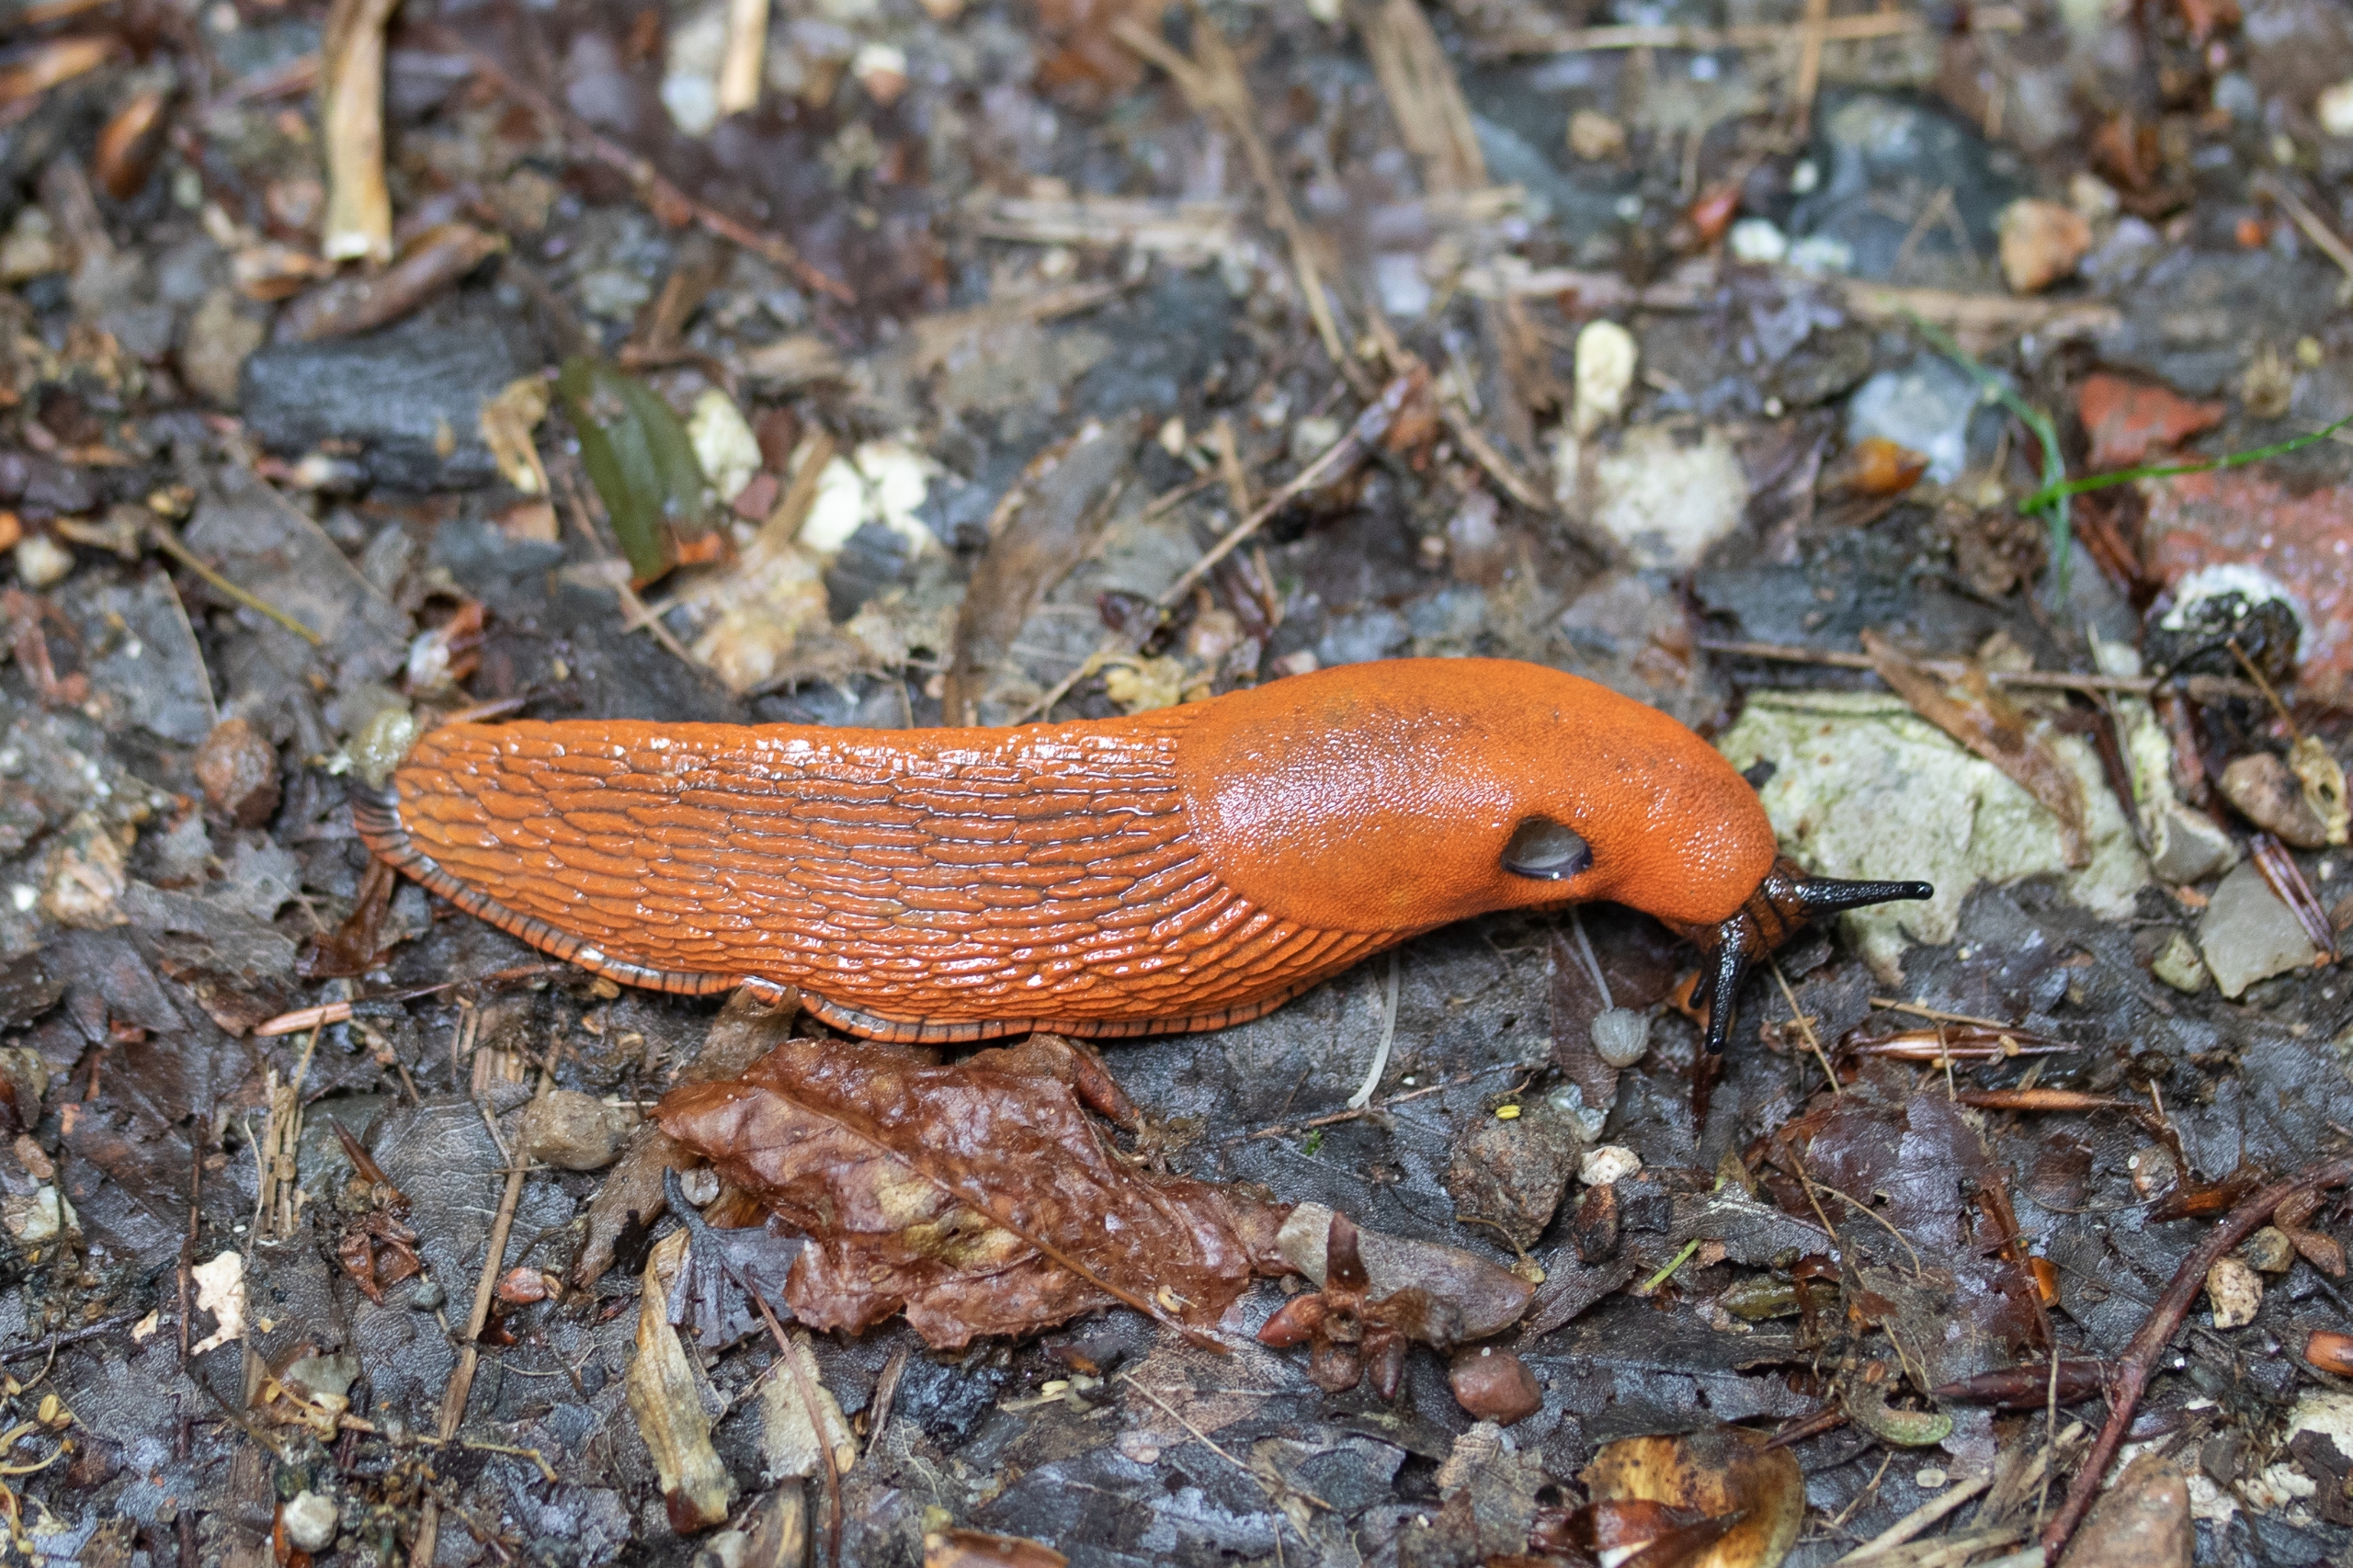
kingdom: Animalia
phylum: Mollusca
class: Gastropoda
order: Stylommatophora
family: Arionidae
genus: Arion
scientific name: Arion rufus
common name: Rød skovsnegl
